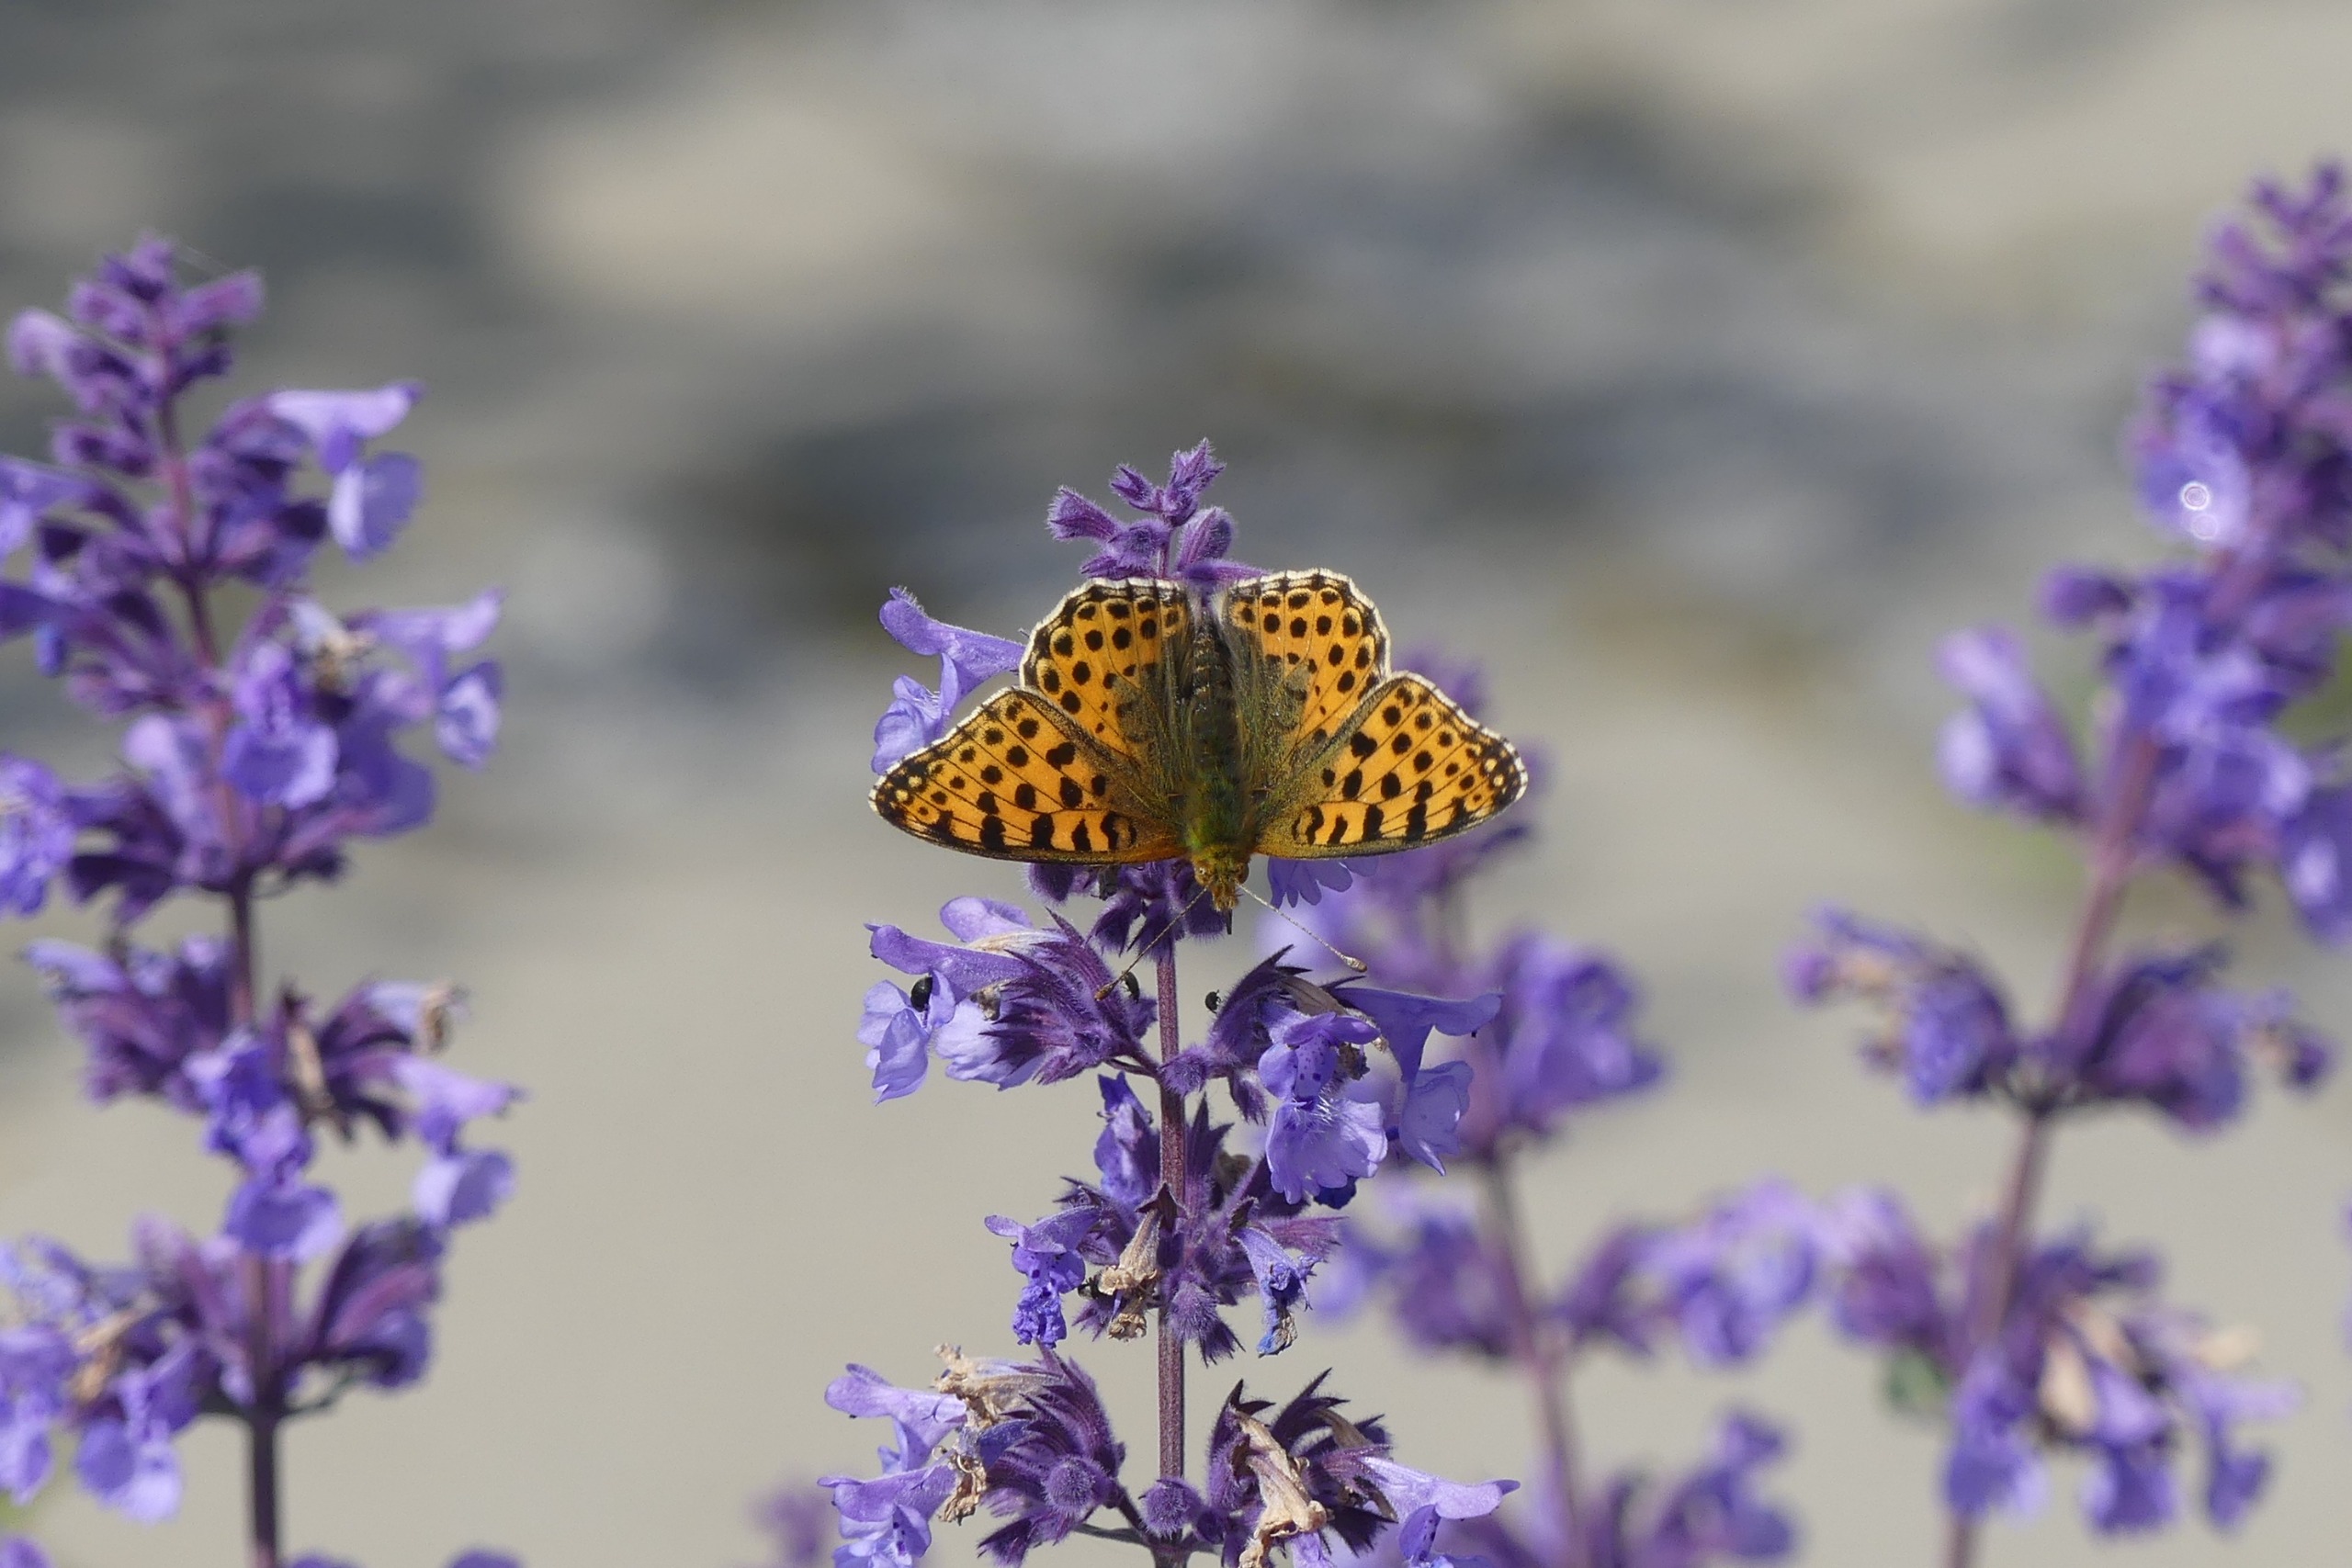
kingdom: Animalia
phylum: Arthropoda
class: Insecta
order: Lepidoptera
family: Nymphalidae
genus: Issoria
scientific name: Issoria lathonia
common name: Storplettet perlemorsommerfugl
